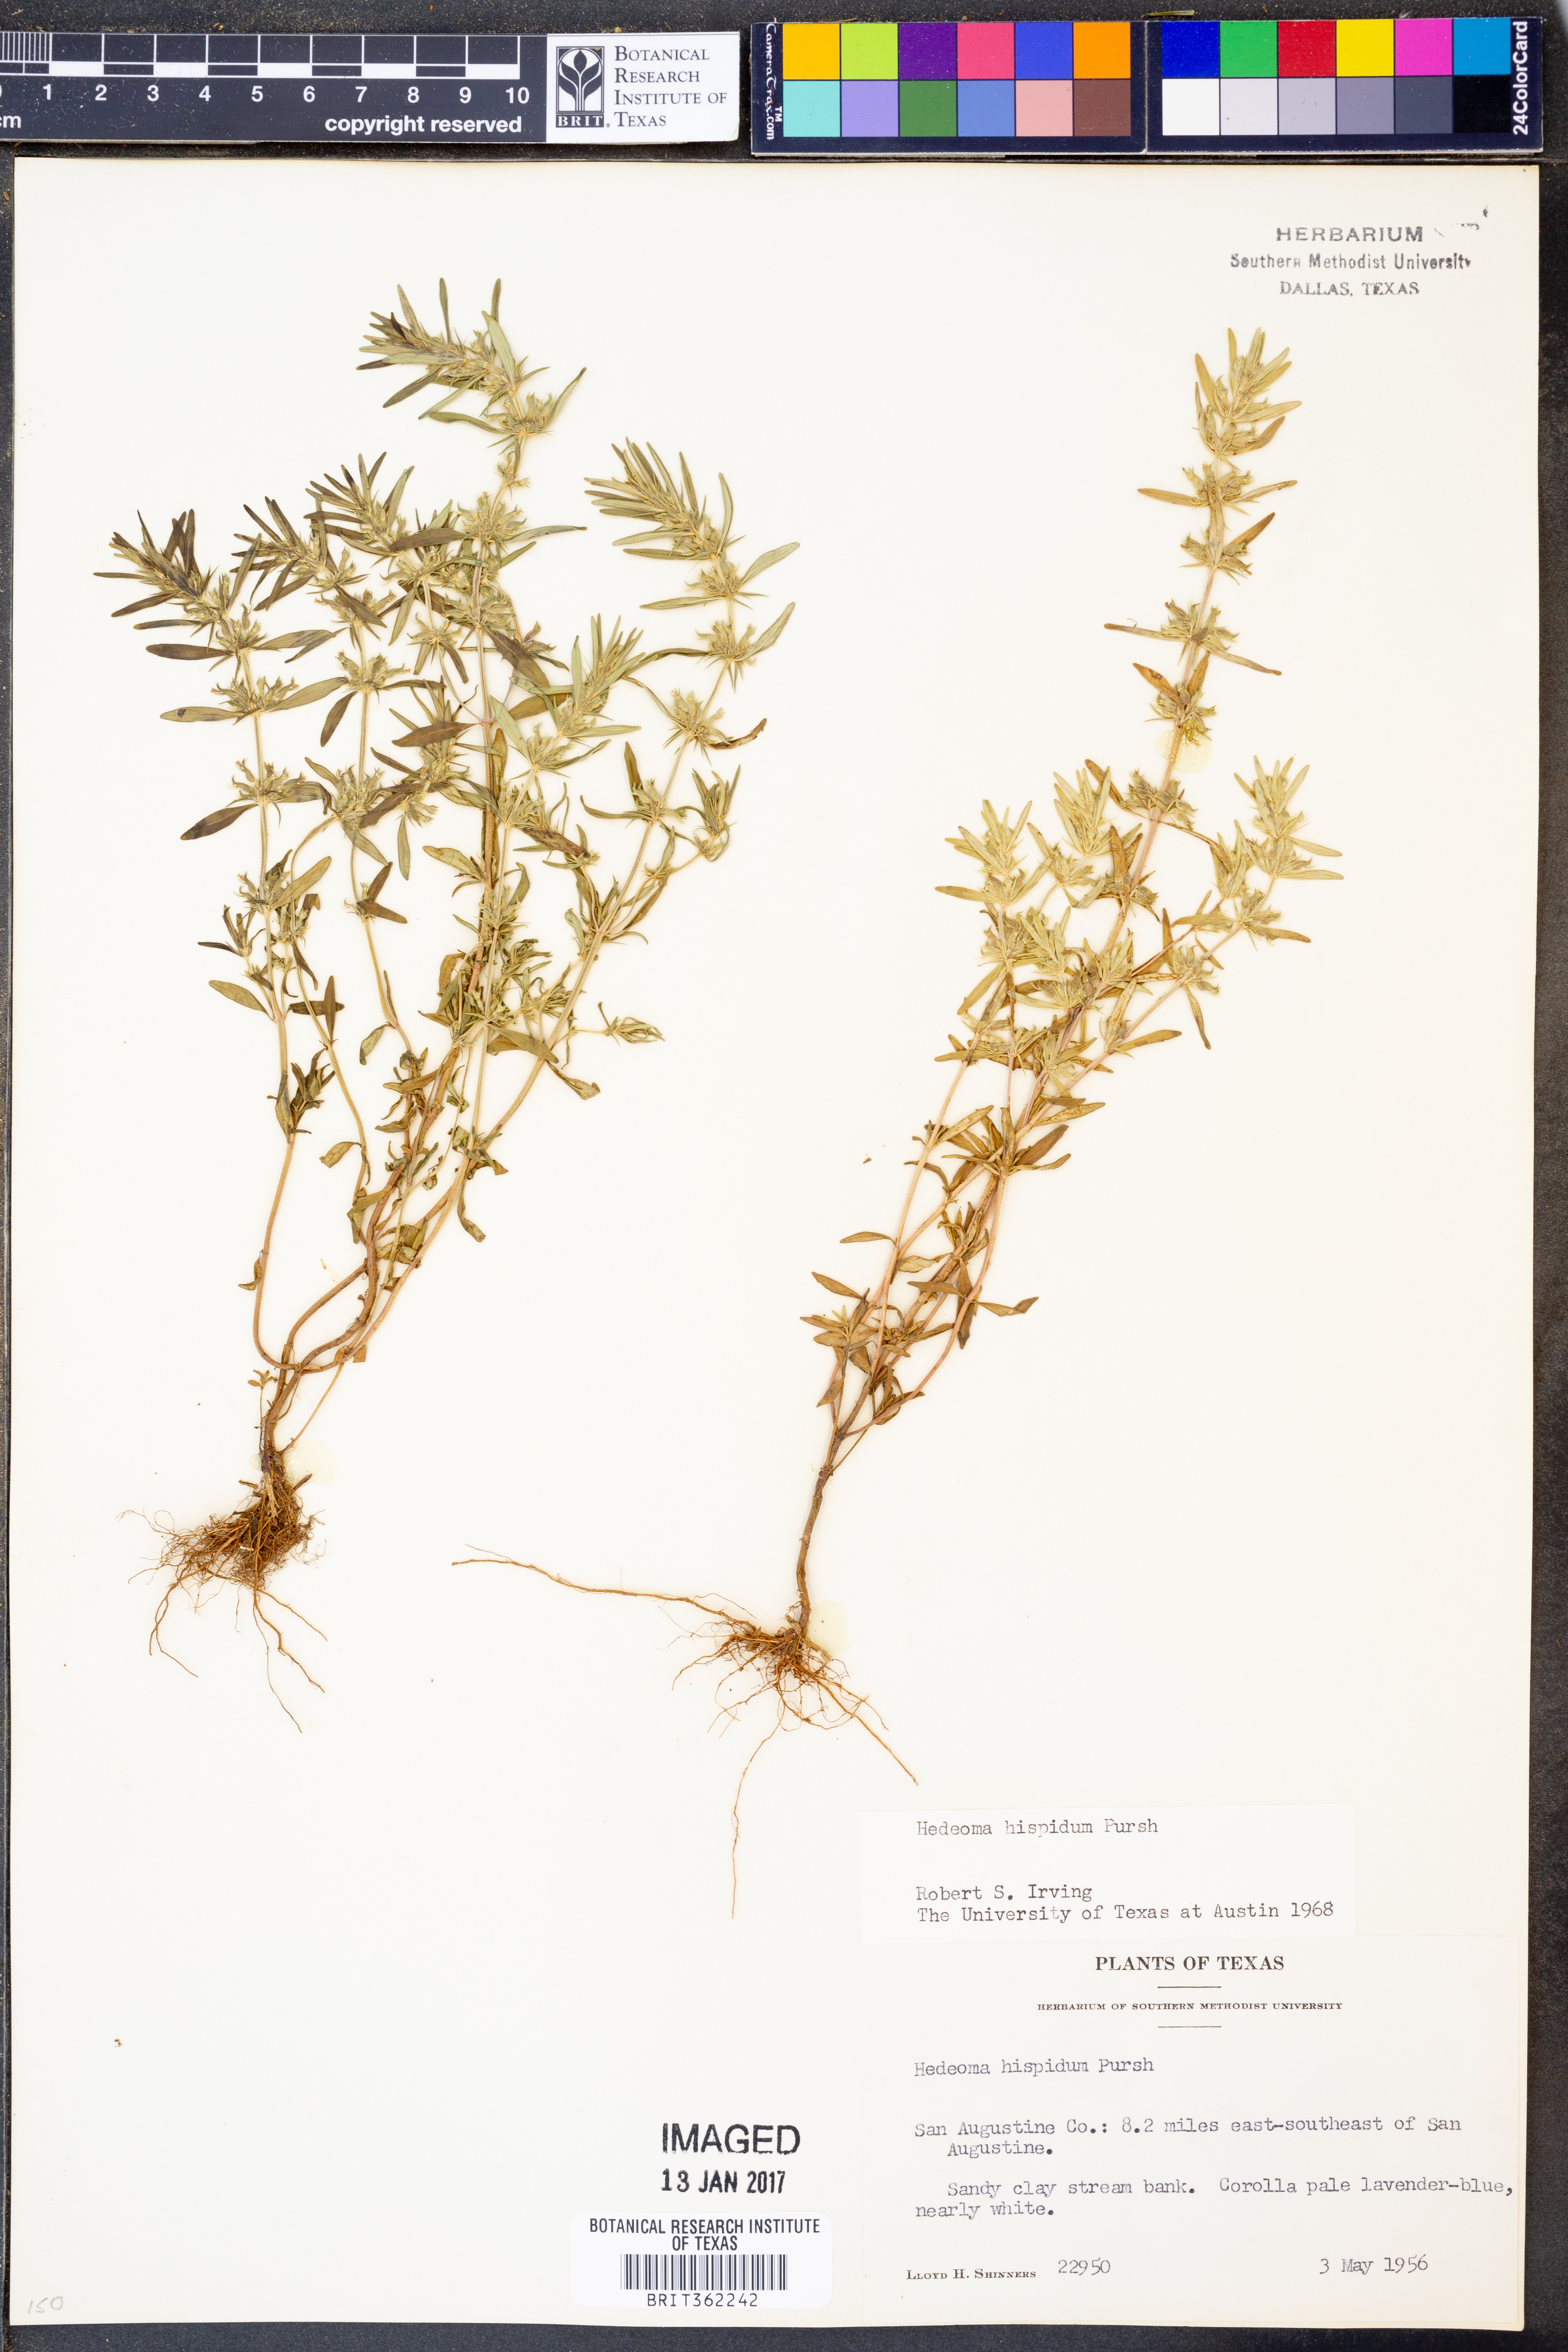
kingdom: Plantae
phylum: Tracheophyta
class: Magnoliopsida
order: Lamiales
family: Lamiaceae
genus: Hedeoma
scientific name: Hedeoma hispida
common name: Mock pennyroyal
